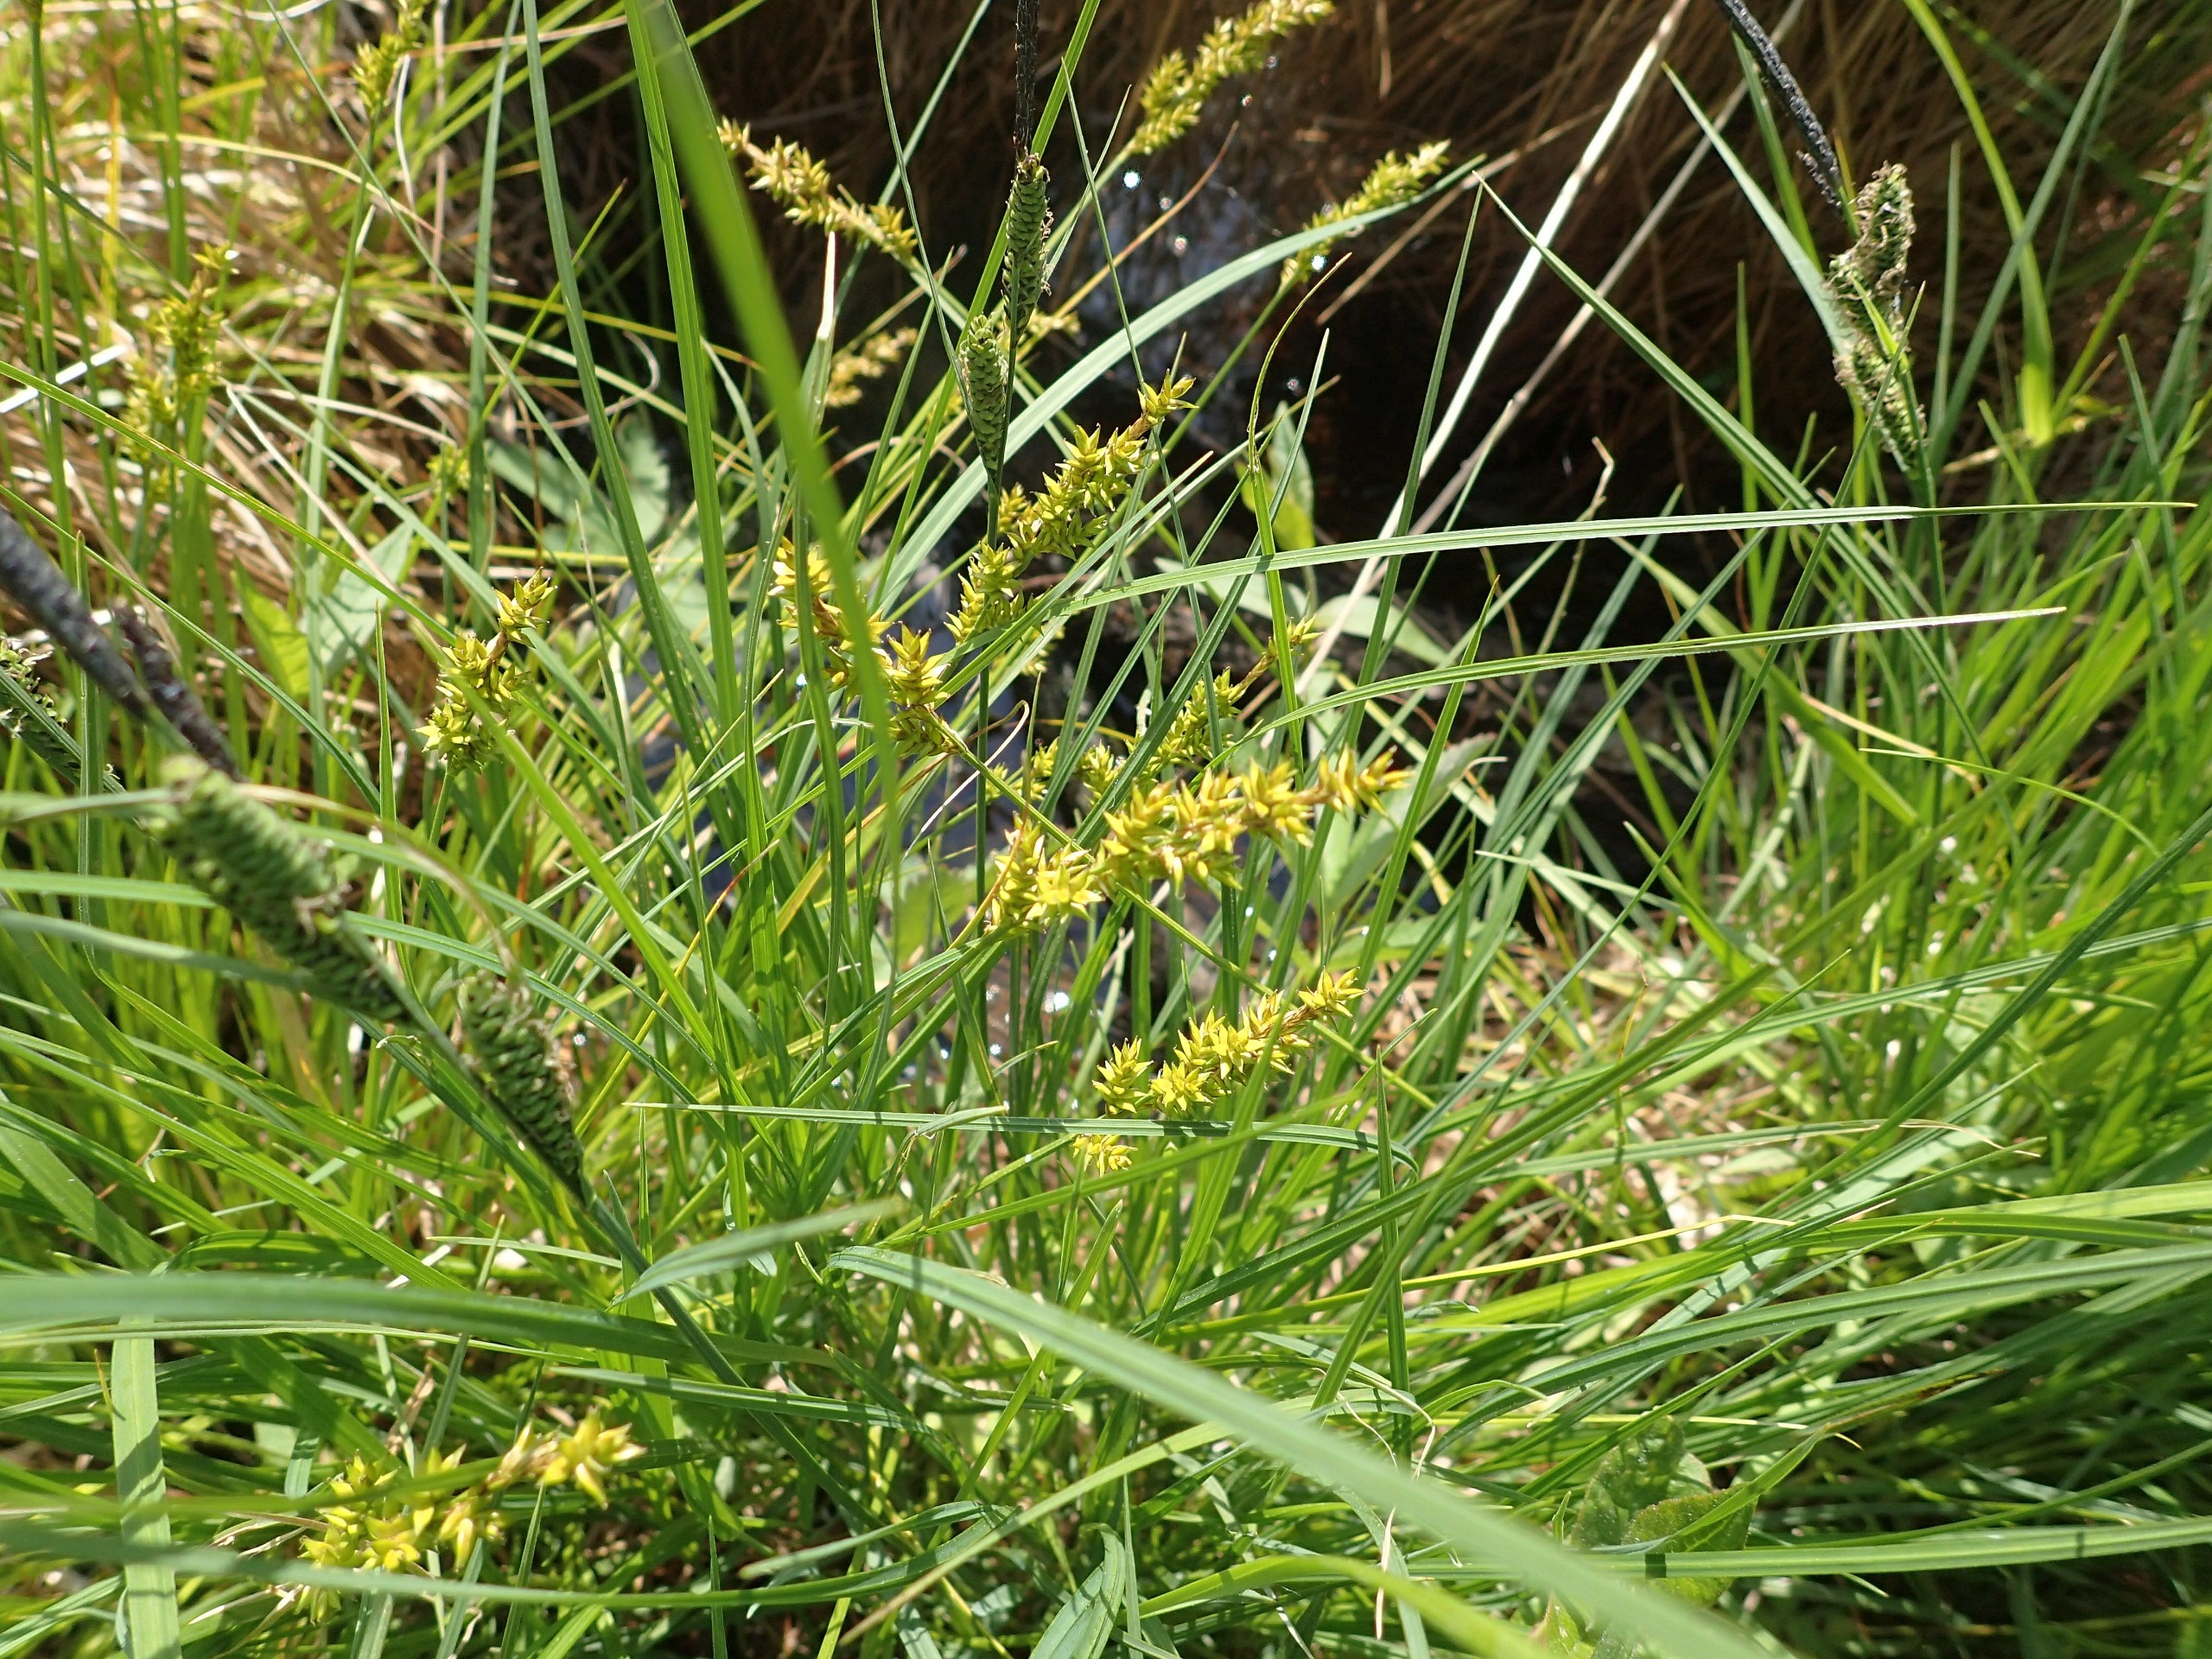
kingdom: Plantae
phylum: Tracheophyta
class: Liliopsida
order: Poales
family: Cyperaceae
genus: Carex
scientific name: Carex elongata
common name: Forlænget star
